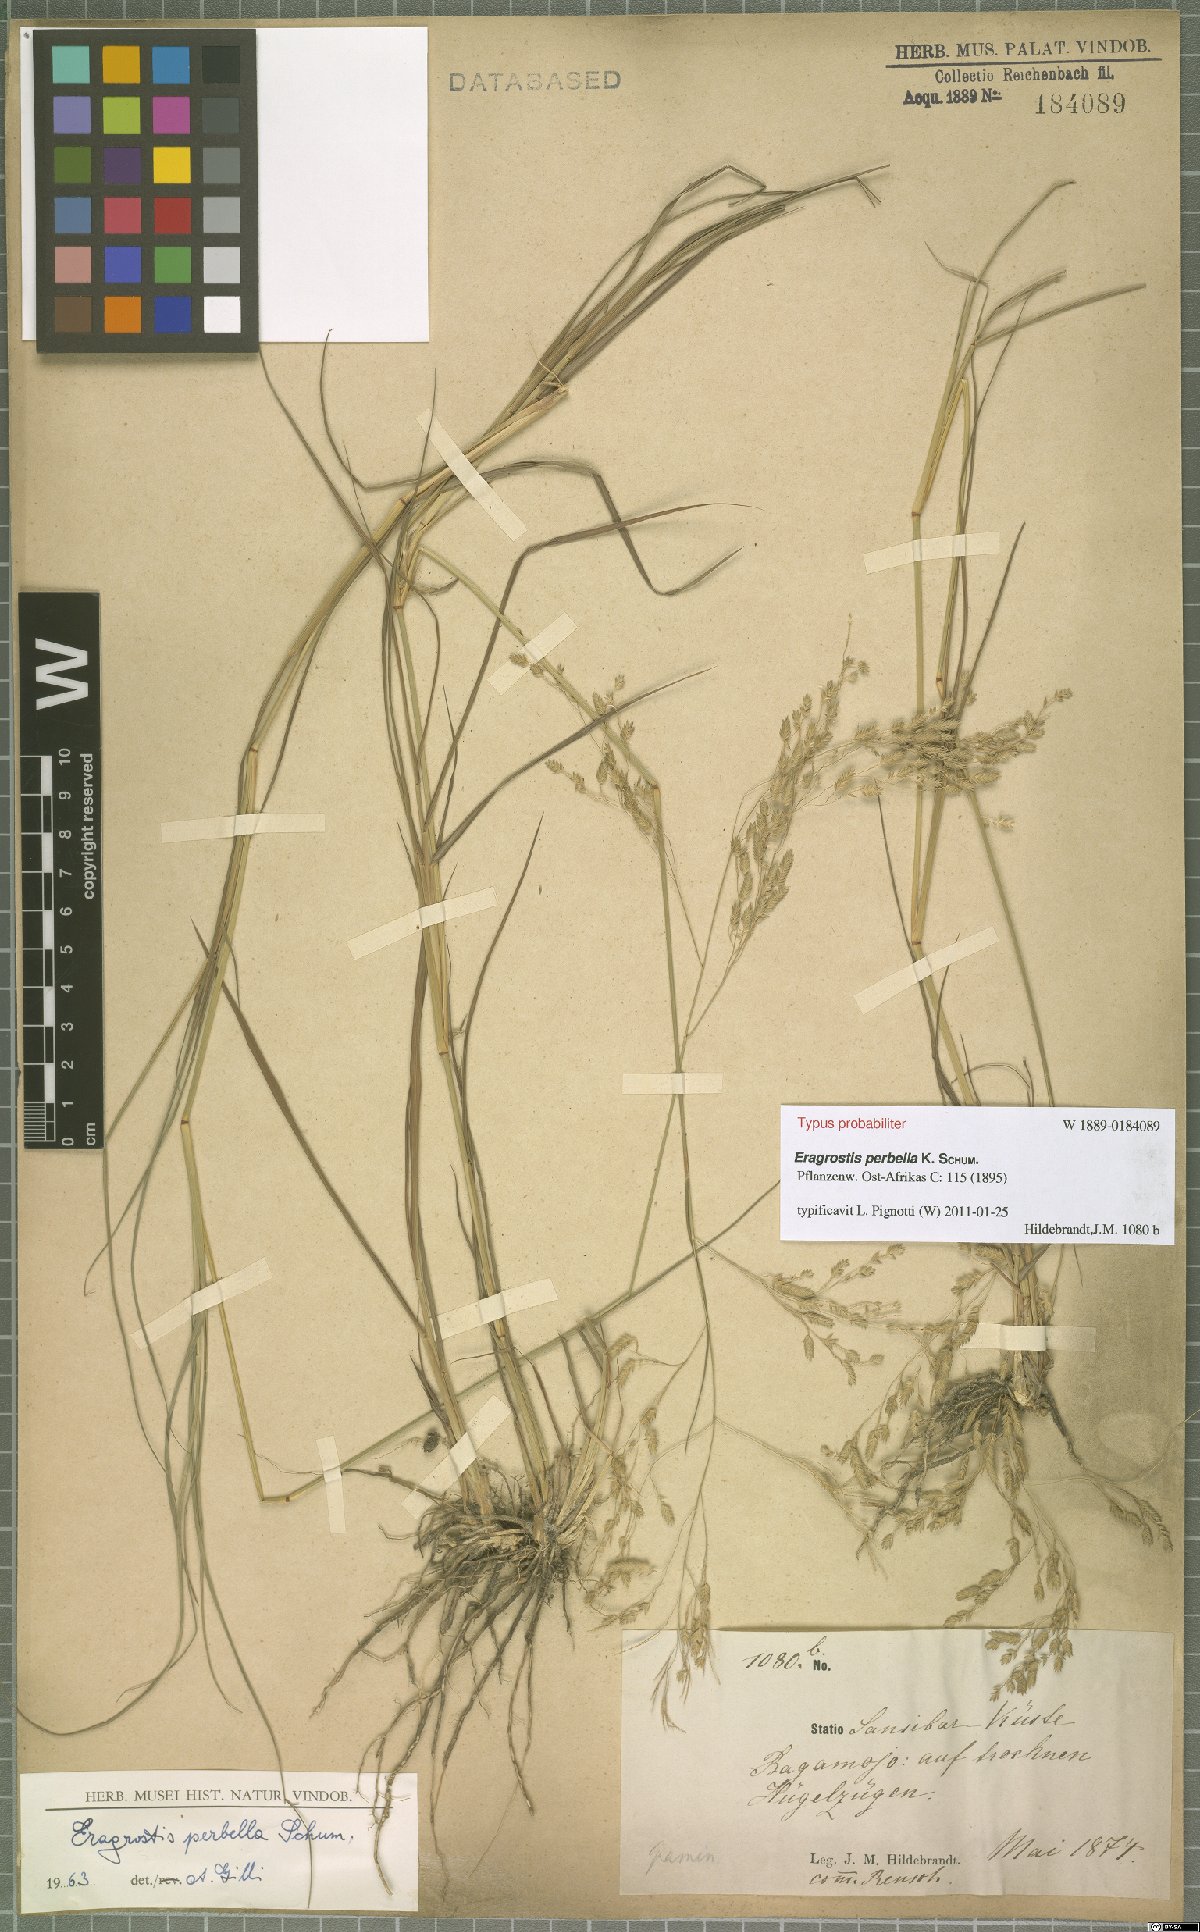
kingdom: Plantae
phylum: Tracheophyta
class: Liliopsida
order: Poales
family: Poaceae
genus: Eragrostis
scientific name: Eragrostis perbella
